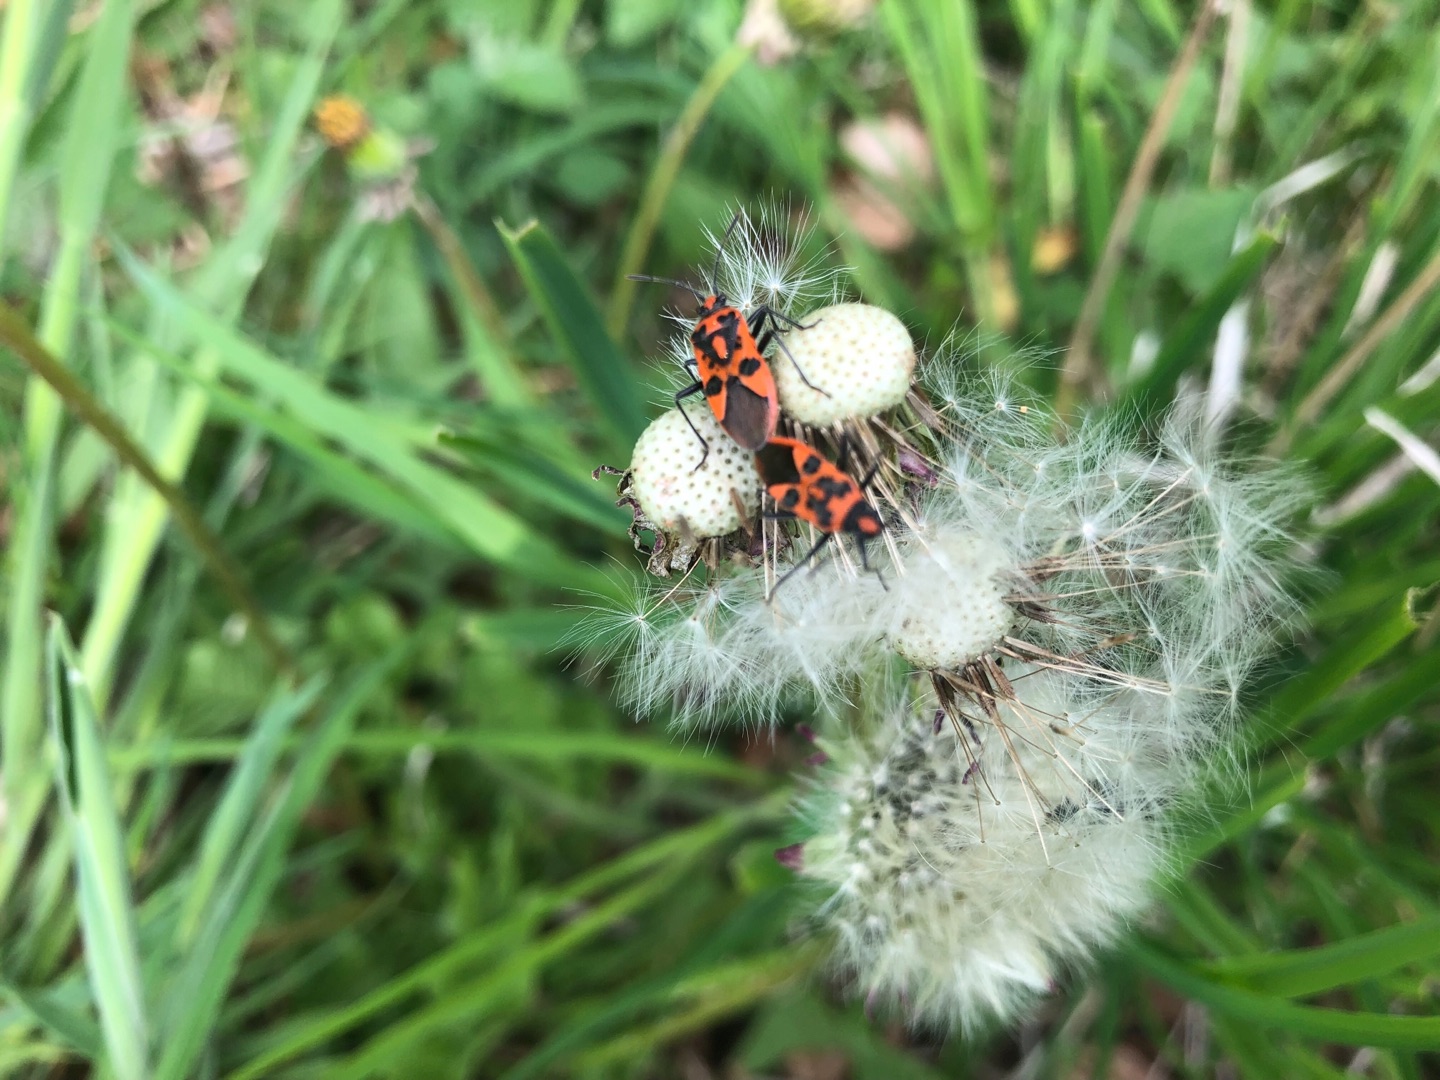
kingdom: Animalia
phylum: Arthropoda
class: Insecta
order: Hemiptera
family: Rhopalidae
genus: Corizus
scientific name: Corizus hyoscyami
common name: Rød kanttæge
